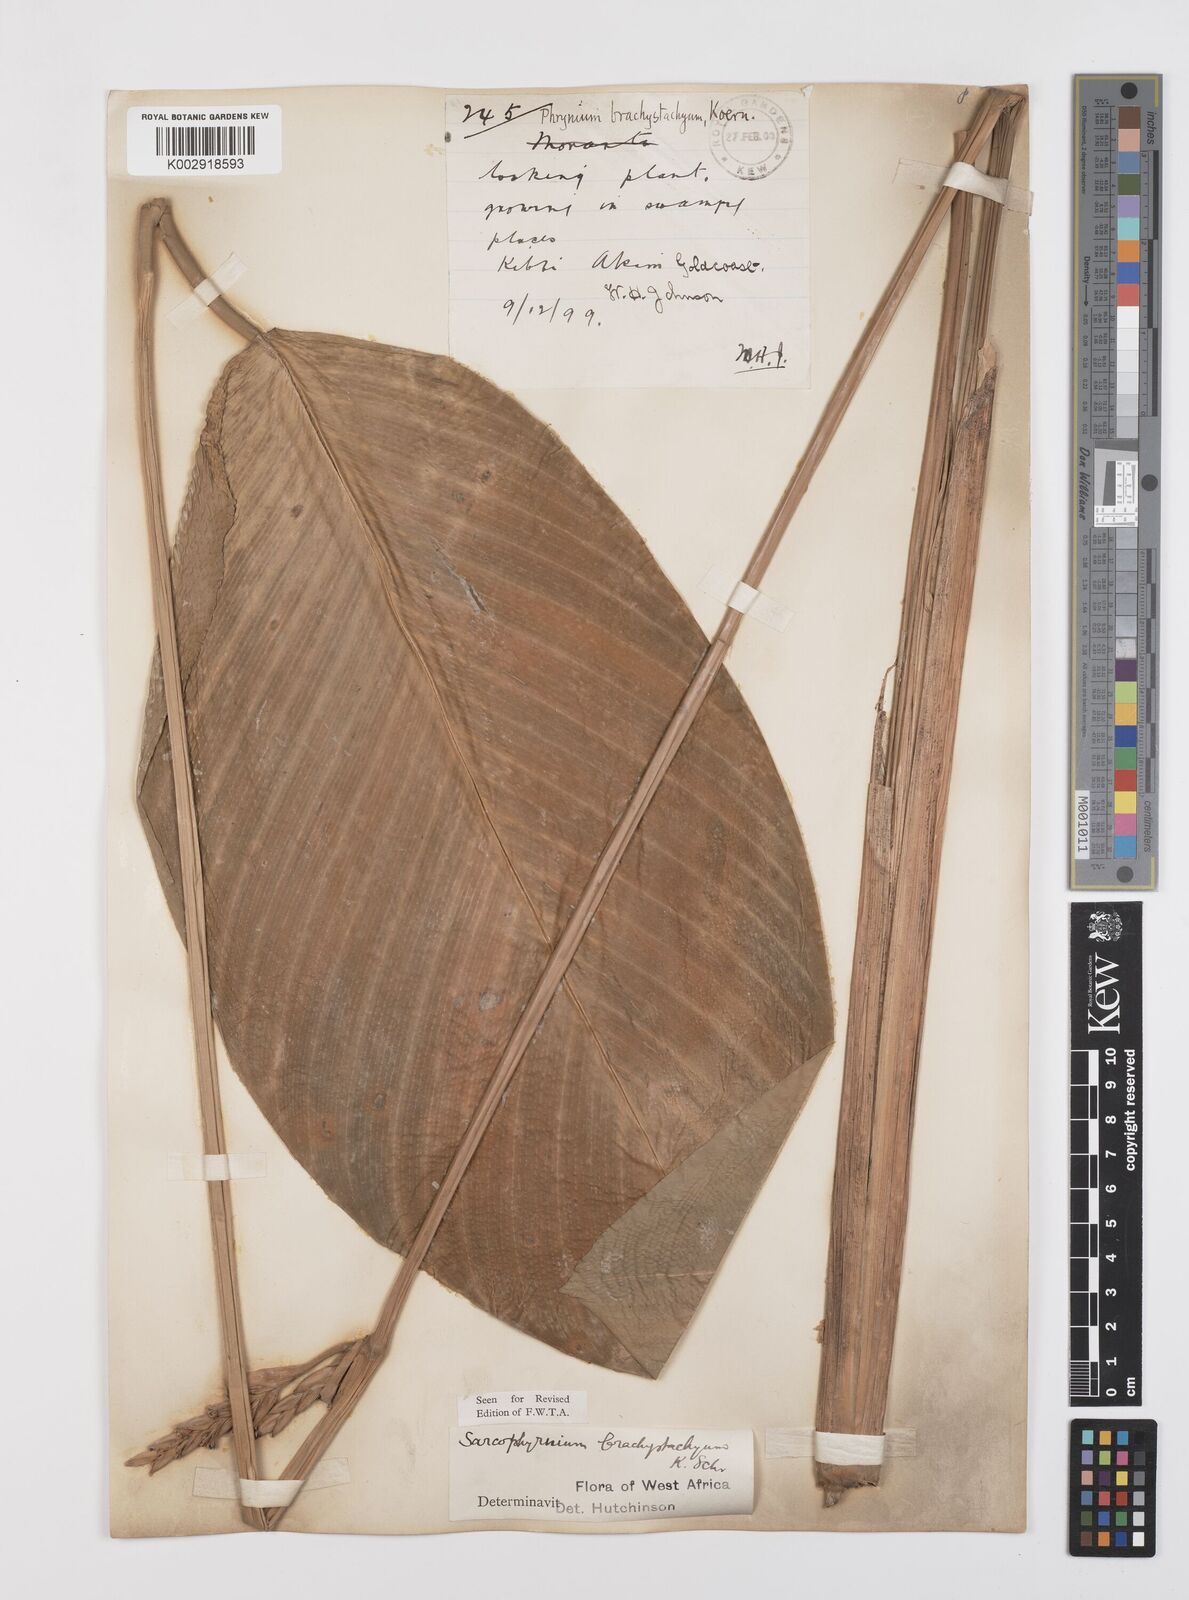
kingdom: Plantae
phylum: Tracheophyta
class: Liliopsida
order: Zingiberales
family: Marantaceae
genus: Sarcophrynium
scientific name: Sarcophrynium brachystachyum
